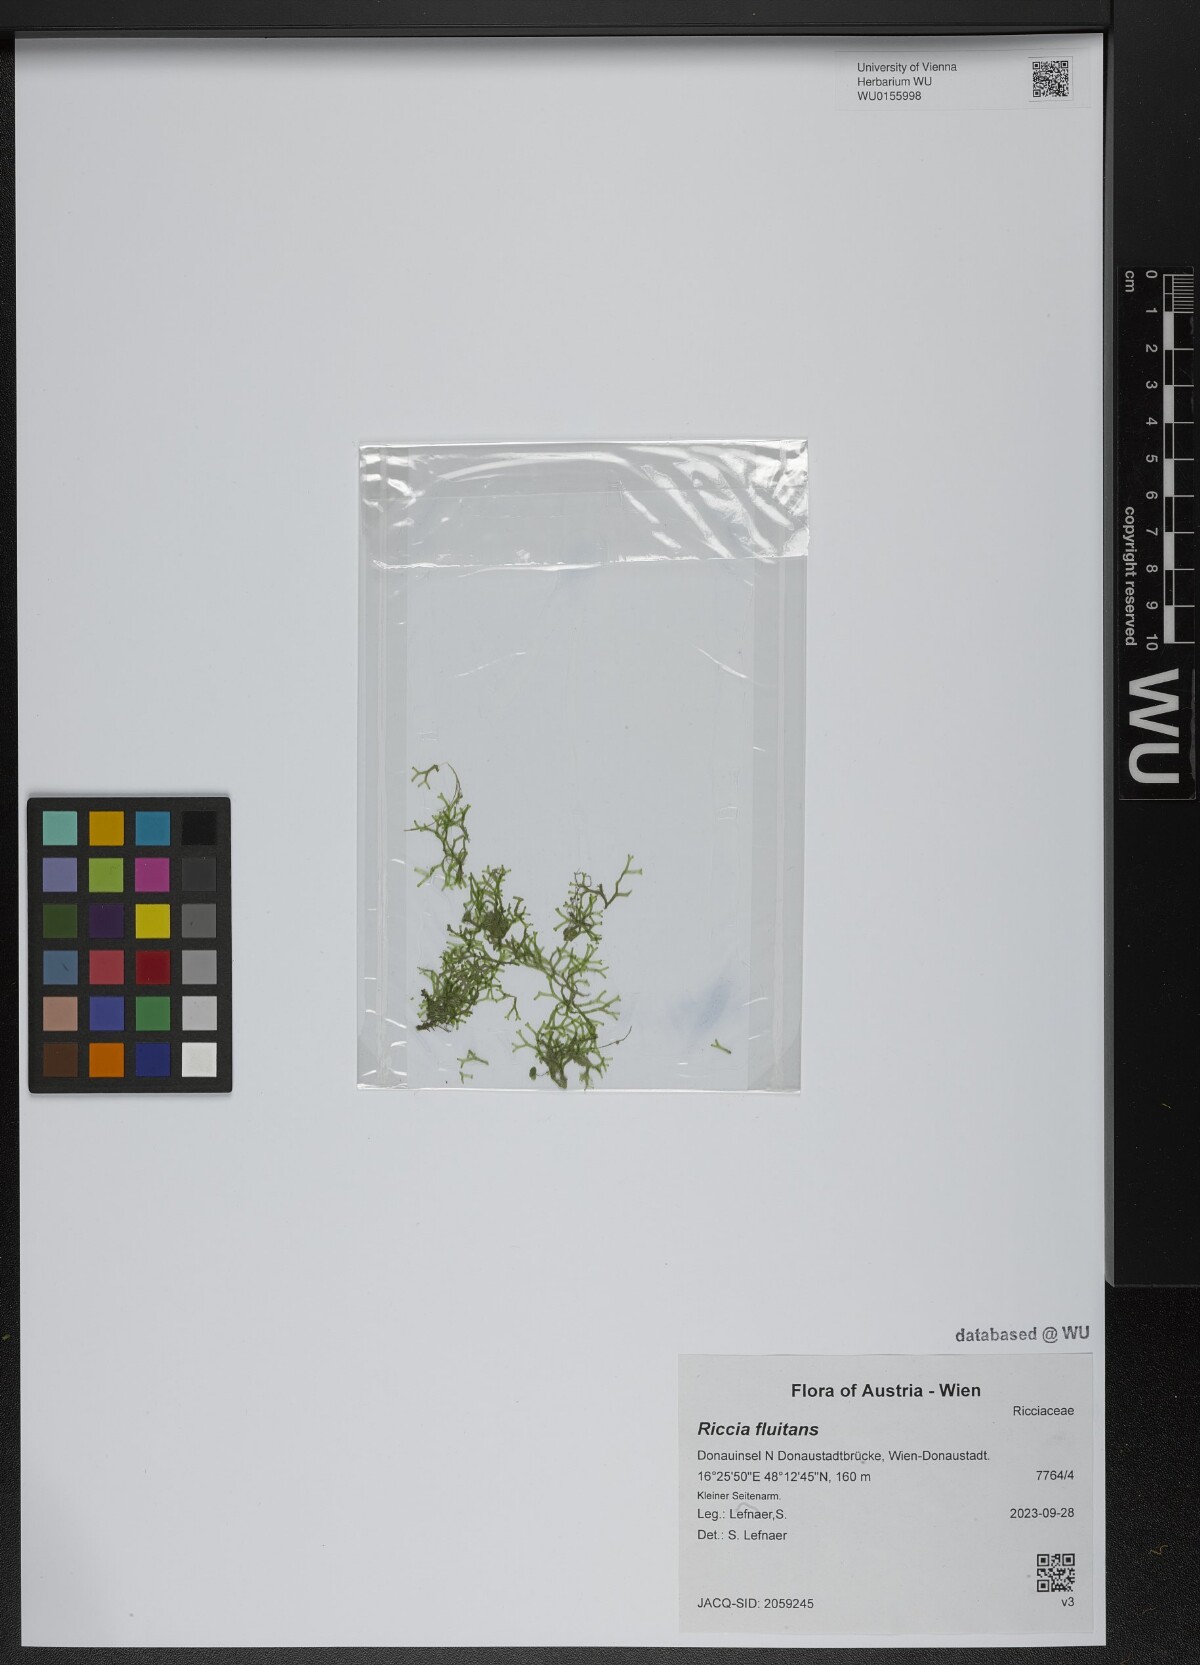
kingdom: Plantae
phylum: Marchantiophyta
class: Marchantiopsida
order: Marchantiales
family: Ricciaceae
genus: Riccia
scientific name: Riccia fluitans
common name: Floating crystalwort
